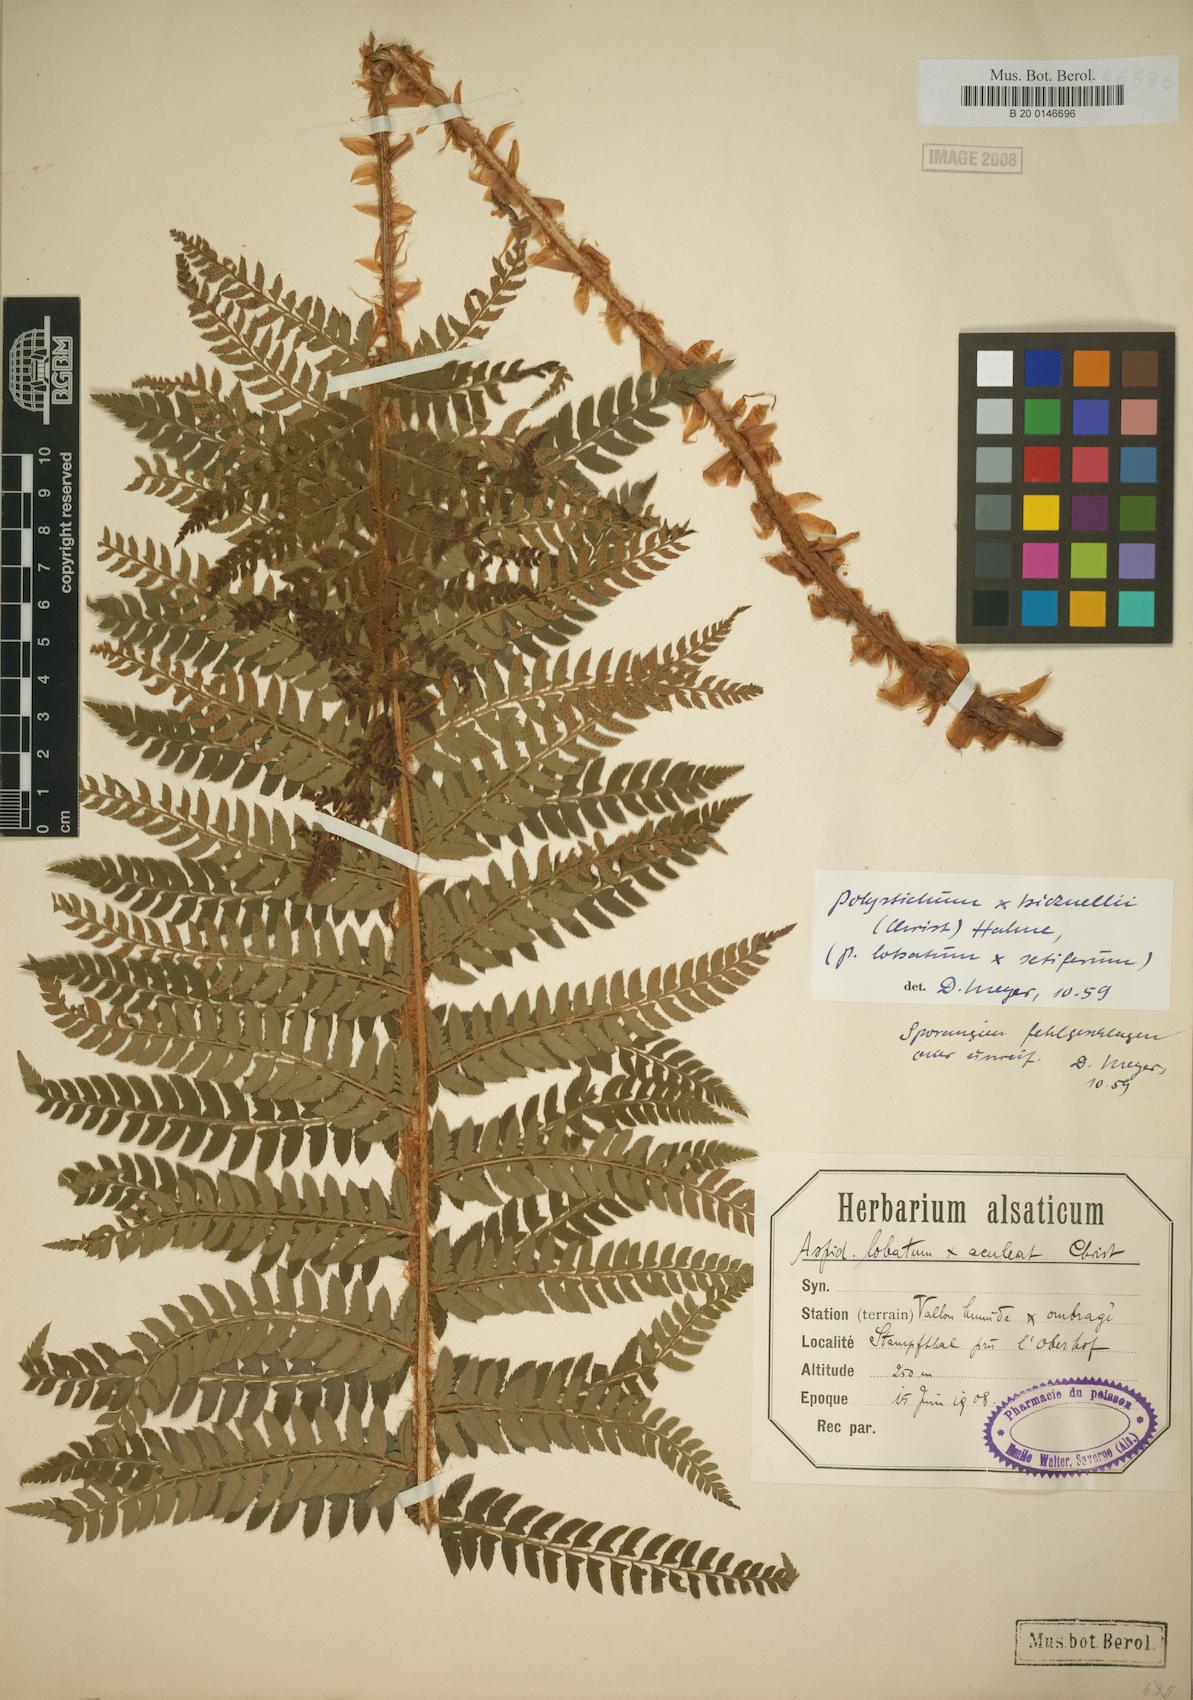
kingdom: Plantae
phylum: Tracheophyta
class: Polypodiopsida
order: Polypodiales
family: Dryopteridaceae
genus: Polystichum
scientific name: Polystichum bicknellii
